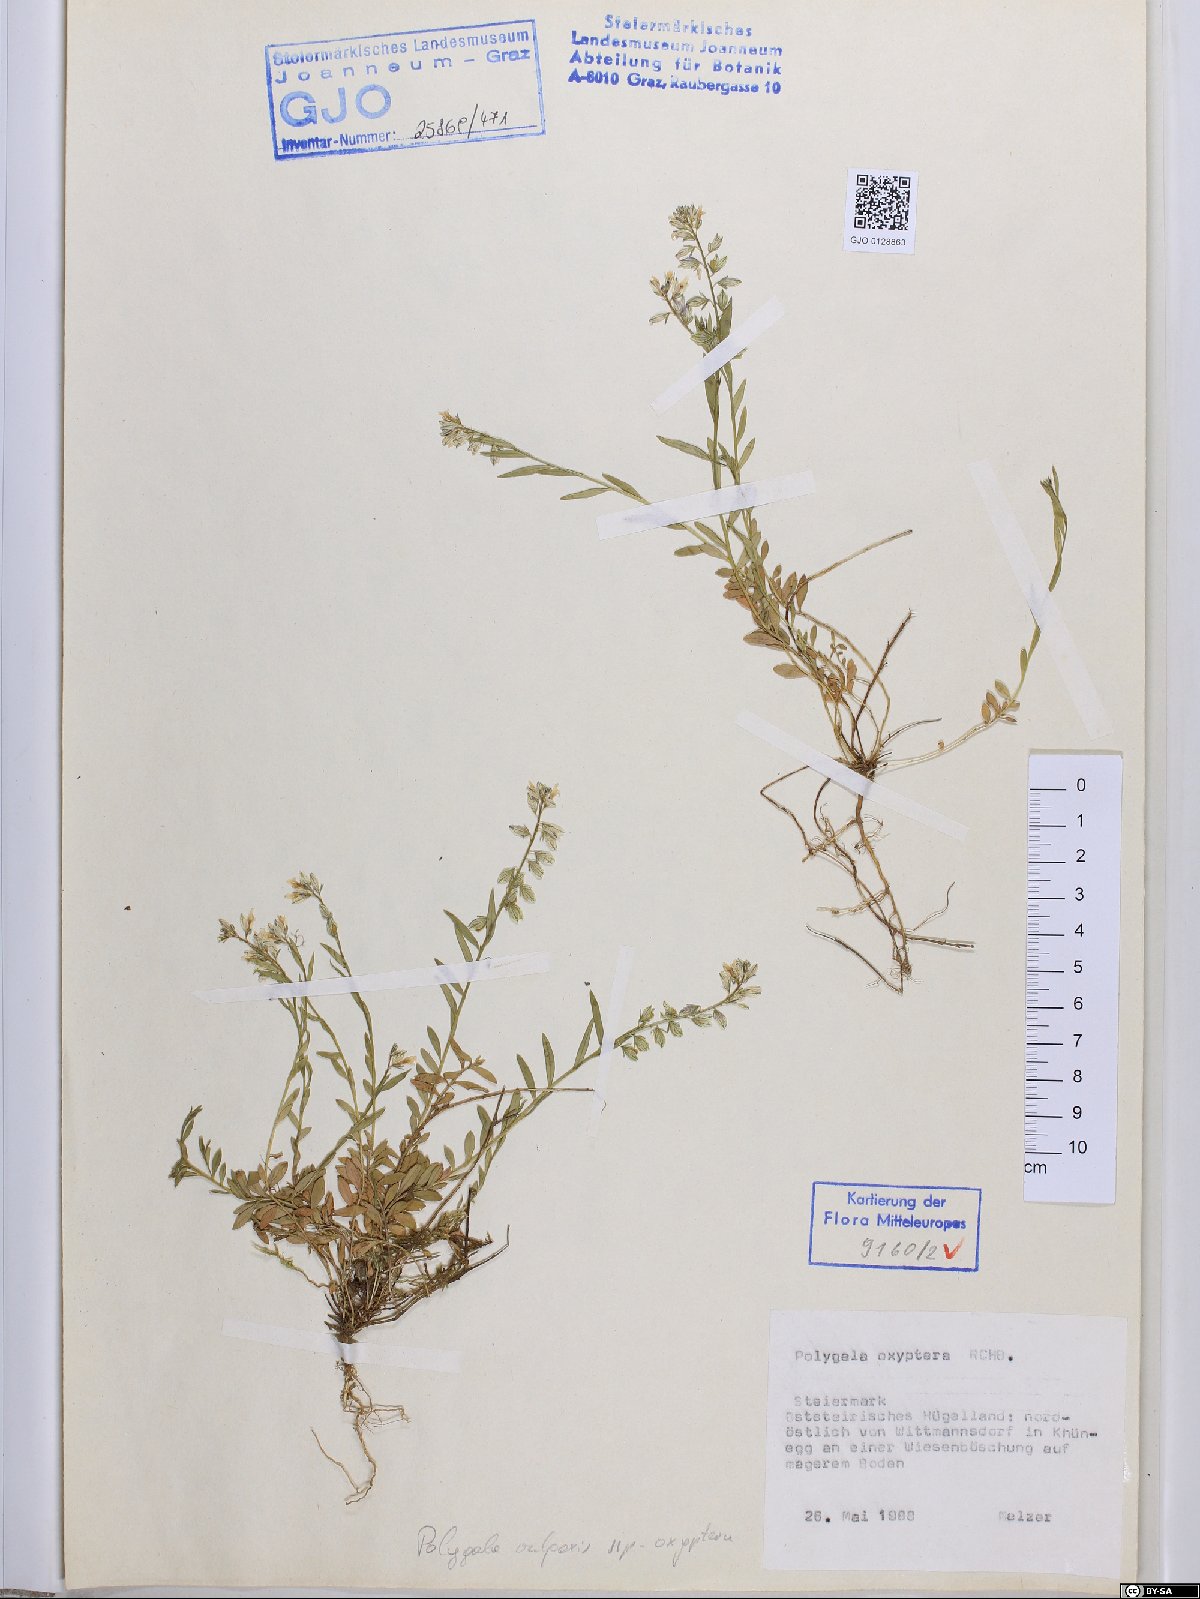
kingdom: Plantae
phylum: Tracheophyta
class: Magnoliopsida
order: Fabales
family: Polygalaceae
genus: Polygala
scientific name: Polygala vulgaris
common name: Common milkwort
